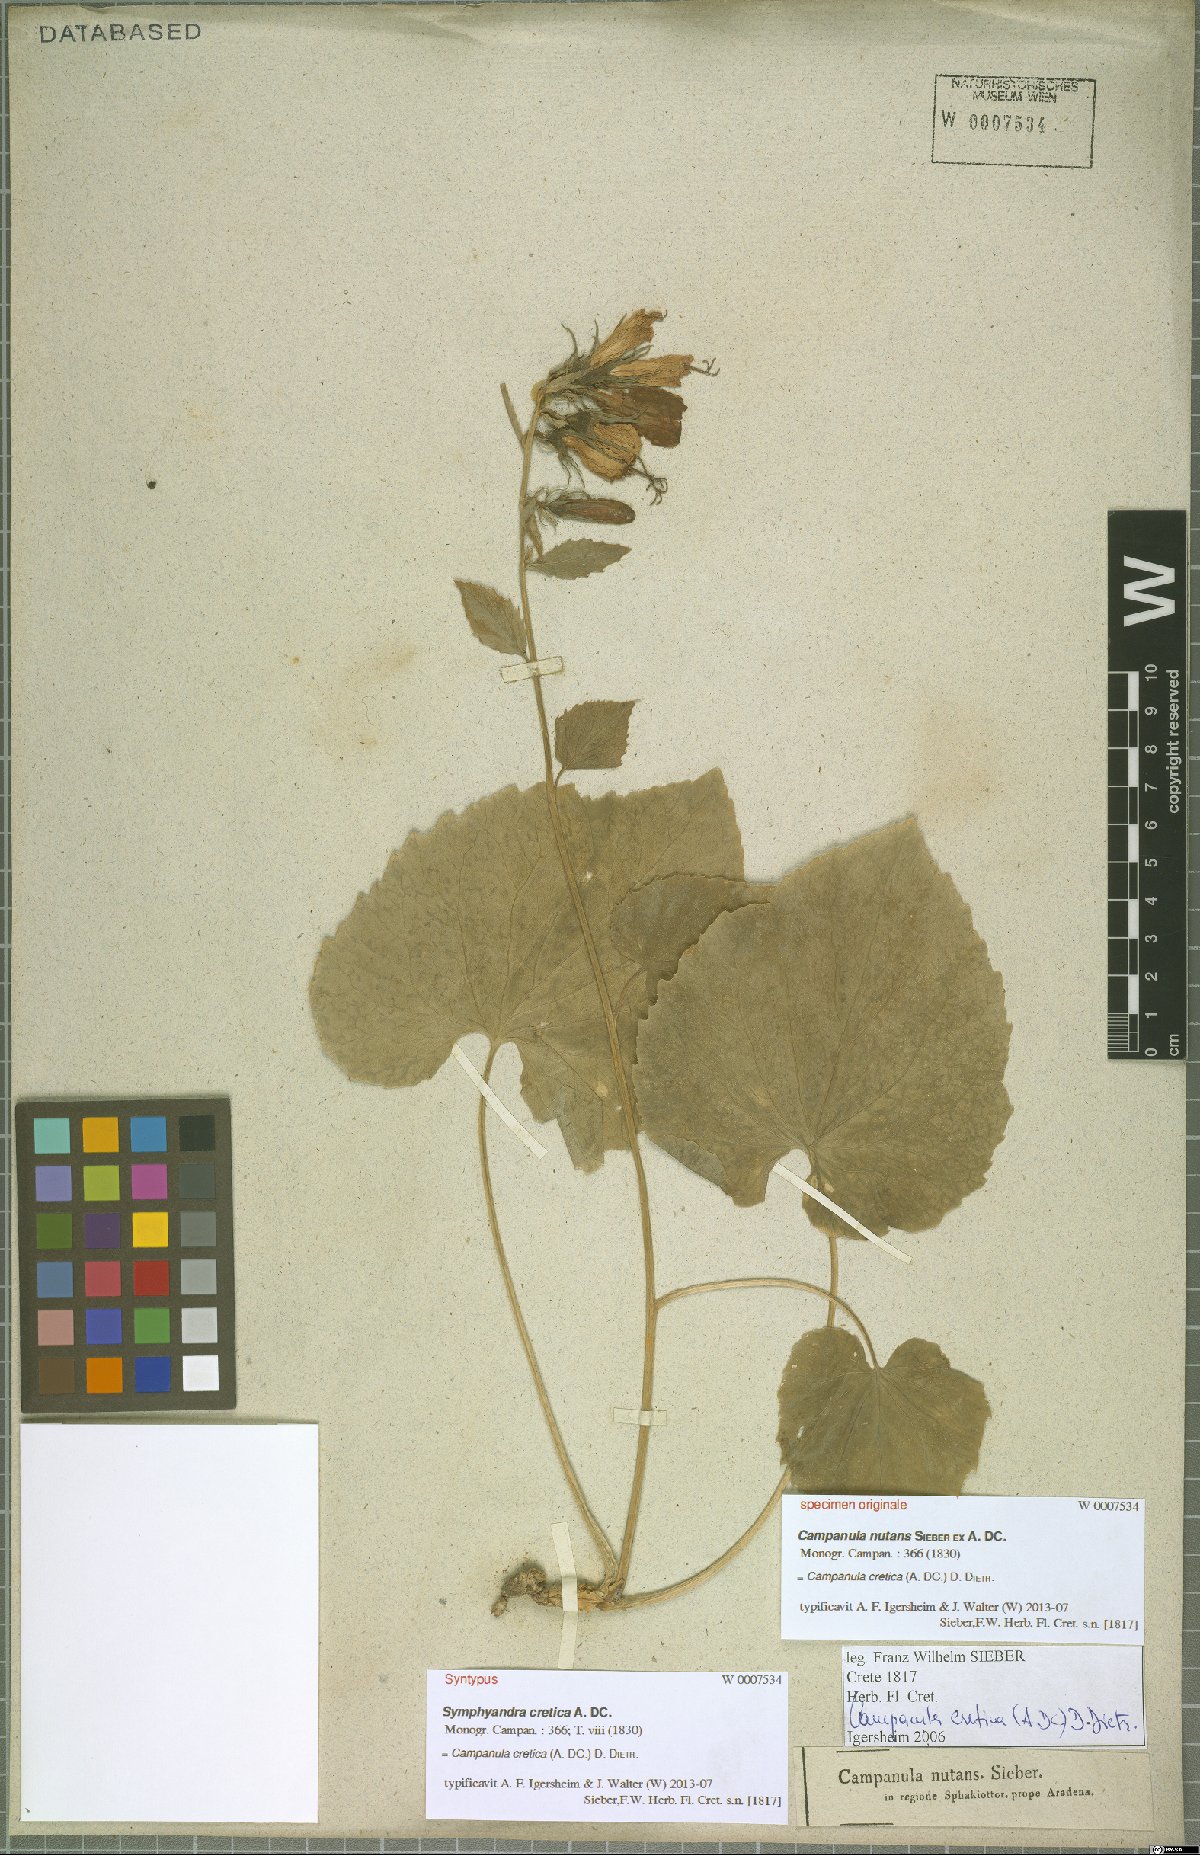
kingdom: Plantae
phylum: Tracheophyta
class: Magnoliopsida
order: Asterales
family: Campanulaceae
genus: Campanula
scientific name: Campanula cretica
